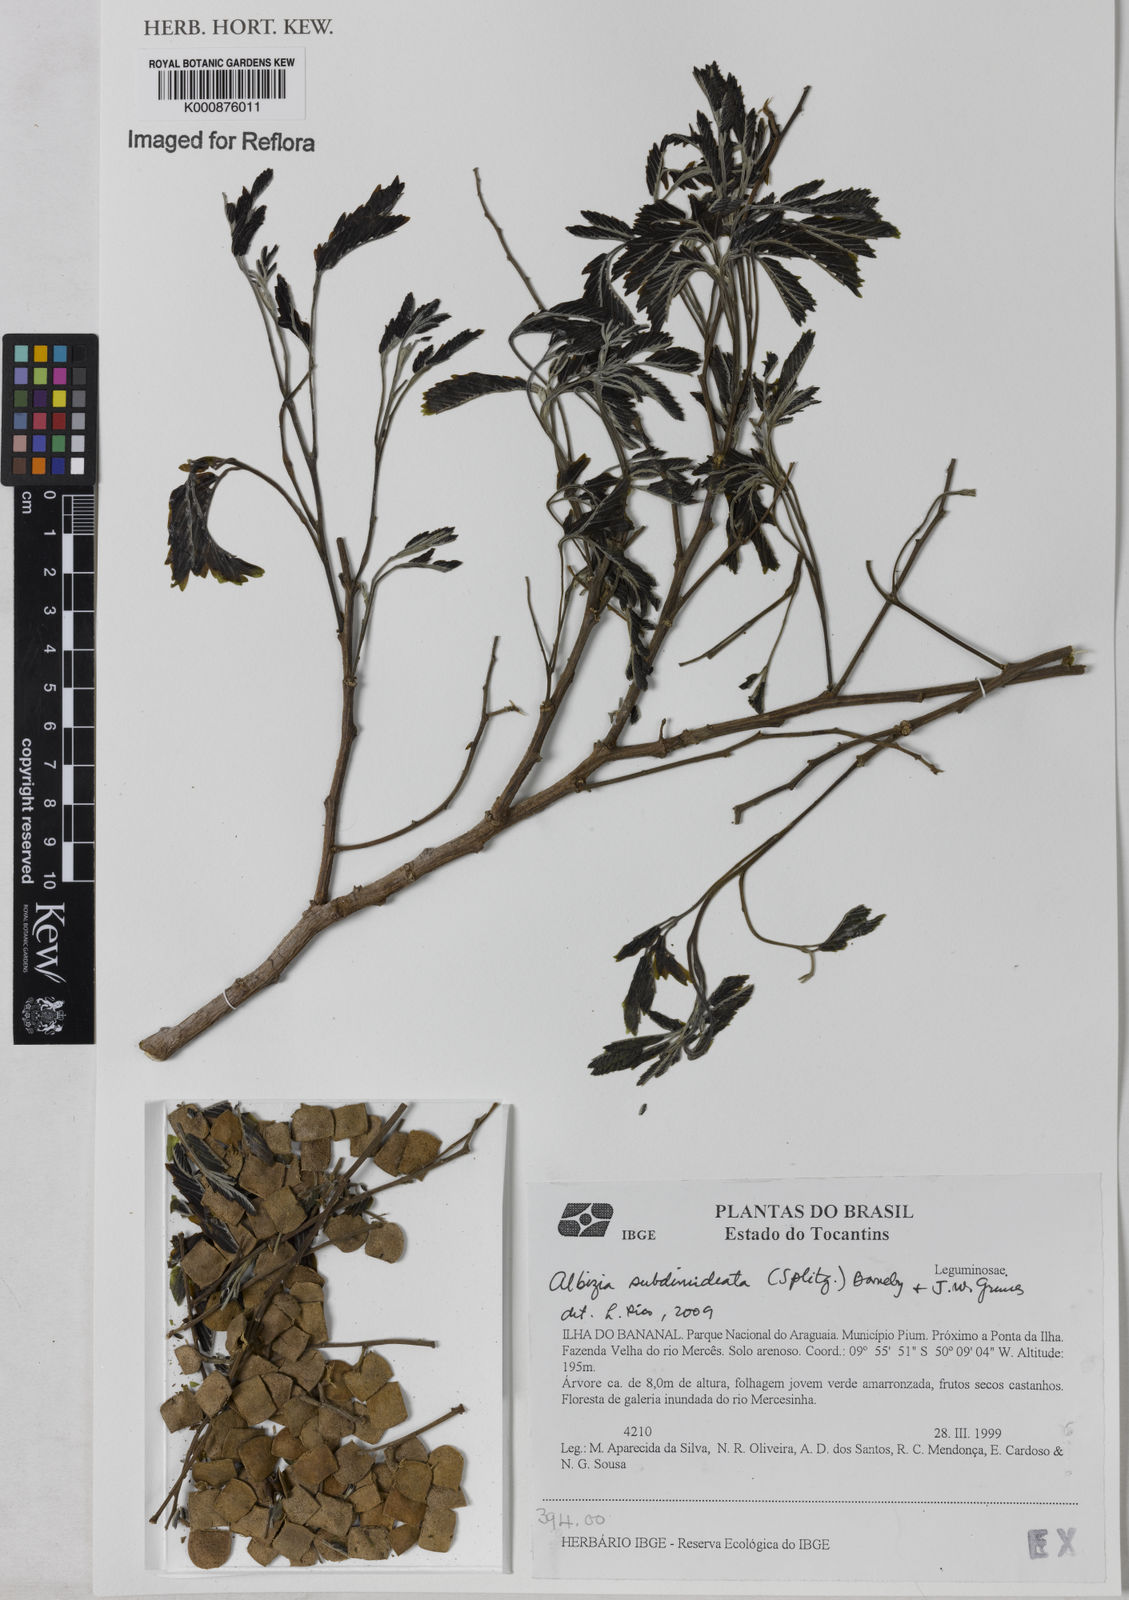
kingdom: Plantae
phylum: Tracheophyta
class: Magnoliopsida
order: Fabales
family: Fabaceae
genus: Albizia
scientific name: Albizia subdimidiata
